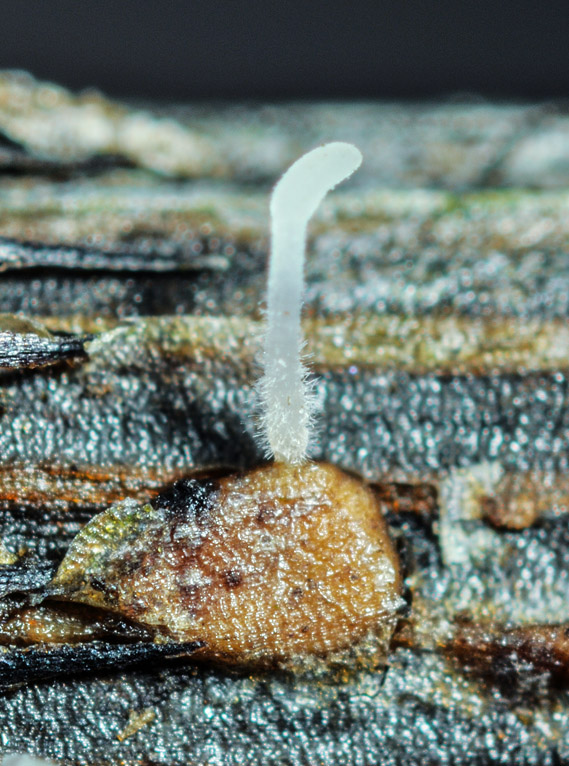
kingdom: Fungi
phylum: Basidiomycota
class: Agaricomycetes
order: Agaricales
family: Typhulaceae
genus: Typhula
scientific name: Typhula setipes
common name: liden trådkølle
